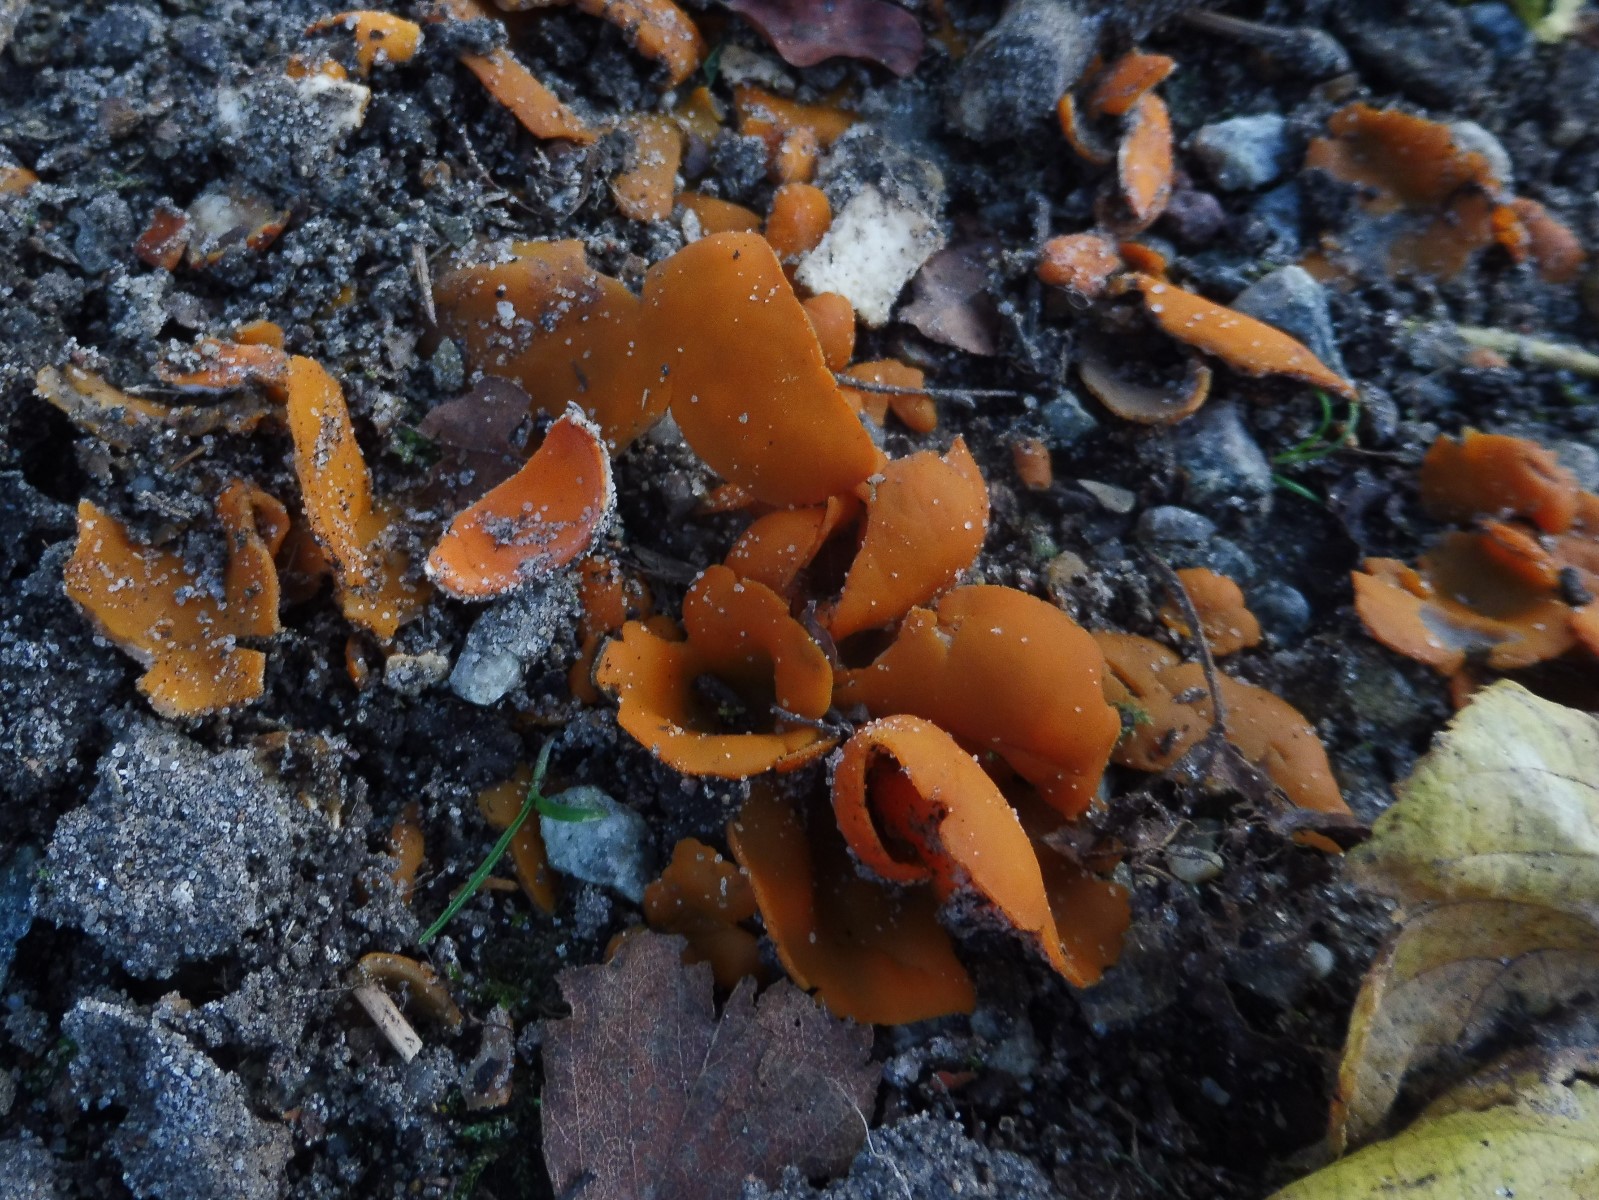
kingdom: Fungi
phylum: Ascomycota
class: Pezizomycetes
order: Pezizales
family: Pyronemataceae
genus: Aleuria
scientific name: Aleuria aurantia
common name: almindelig orangebæger
